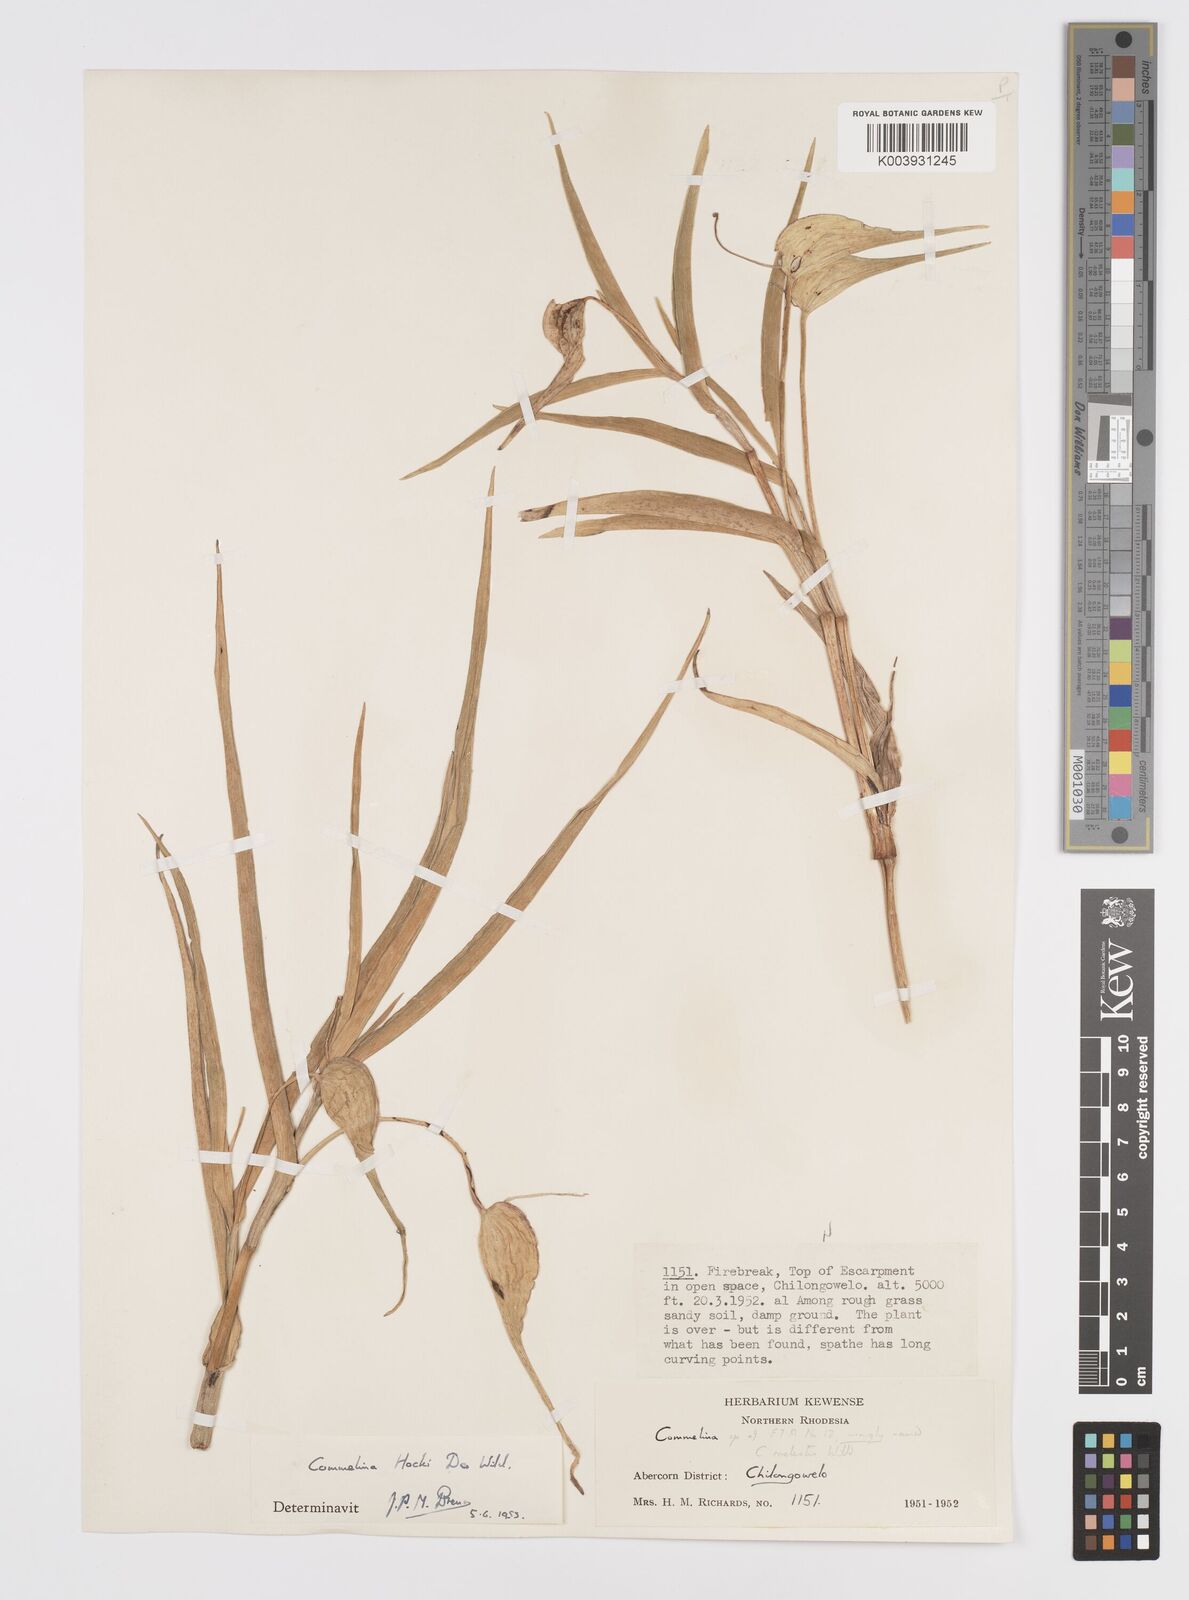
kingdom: Plantae
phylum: Tracheophyta
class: Liliopsida
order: Commelinales
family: Commelinaceae
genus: Commelina
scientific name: Commelina hockii
